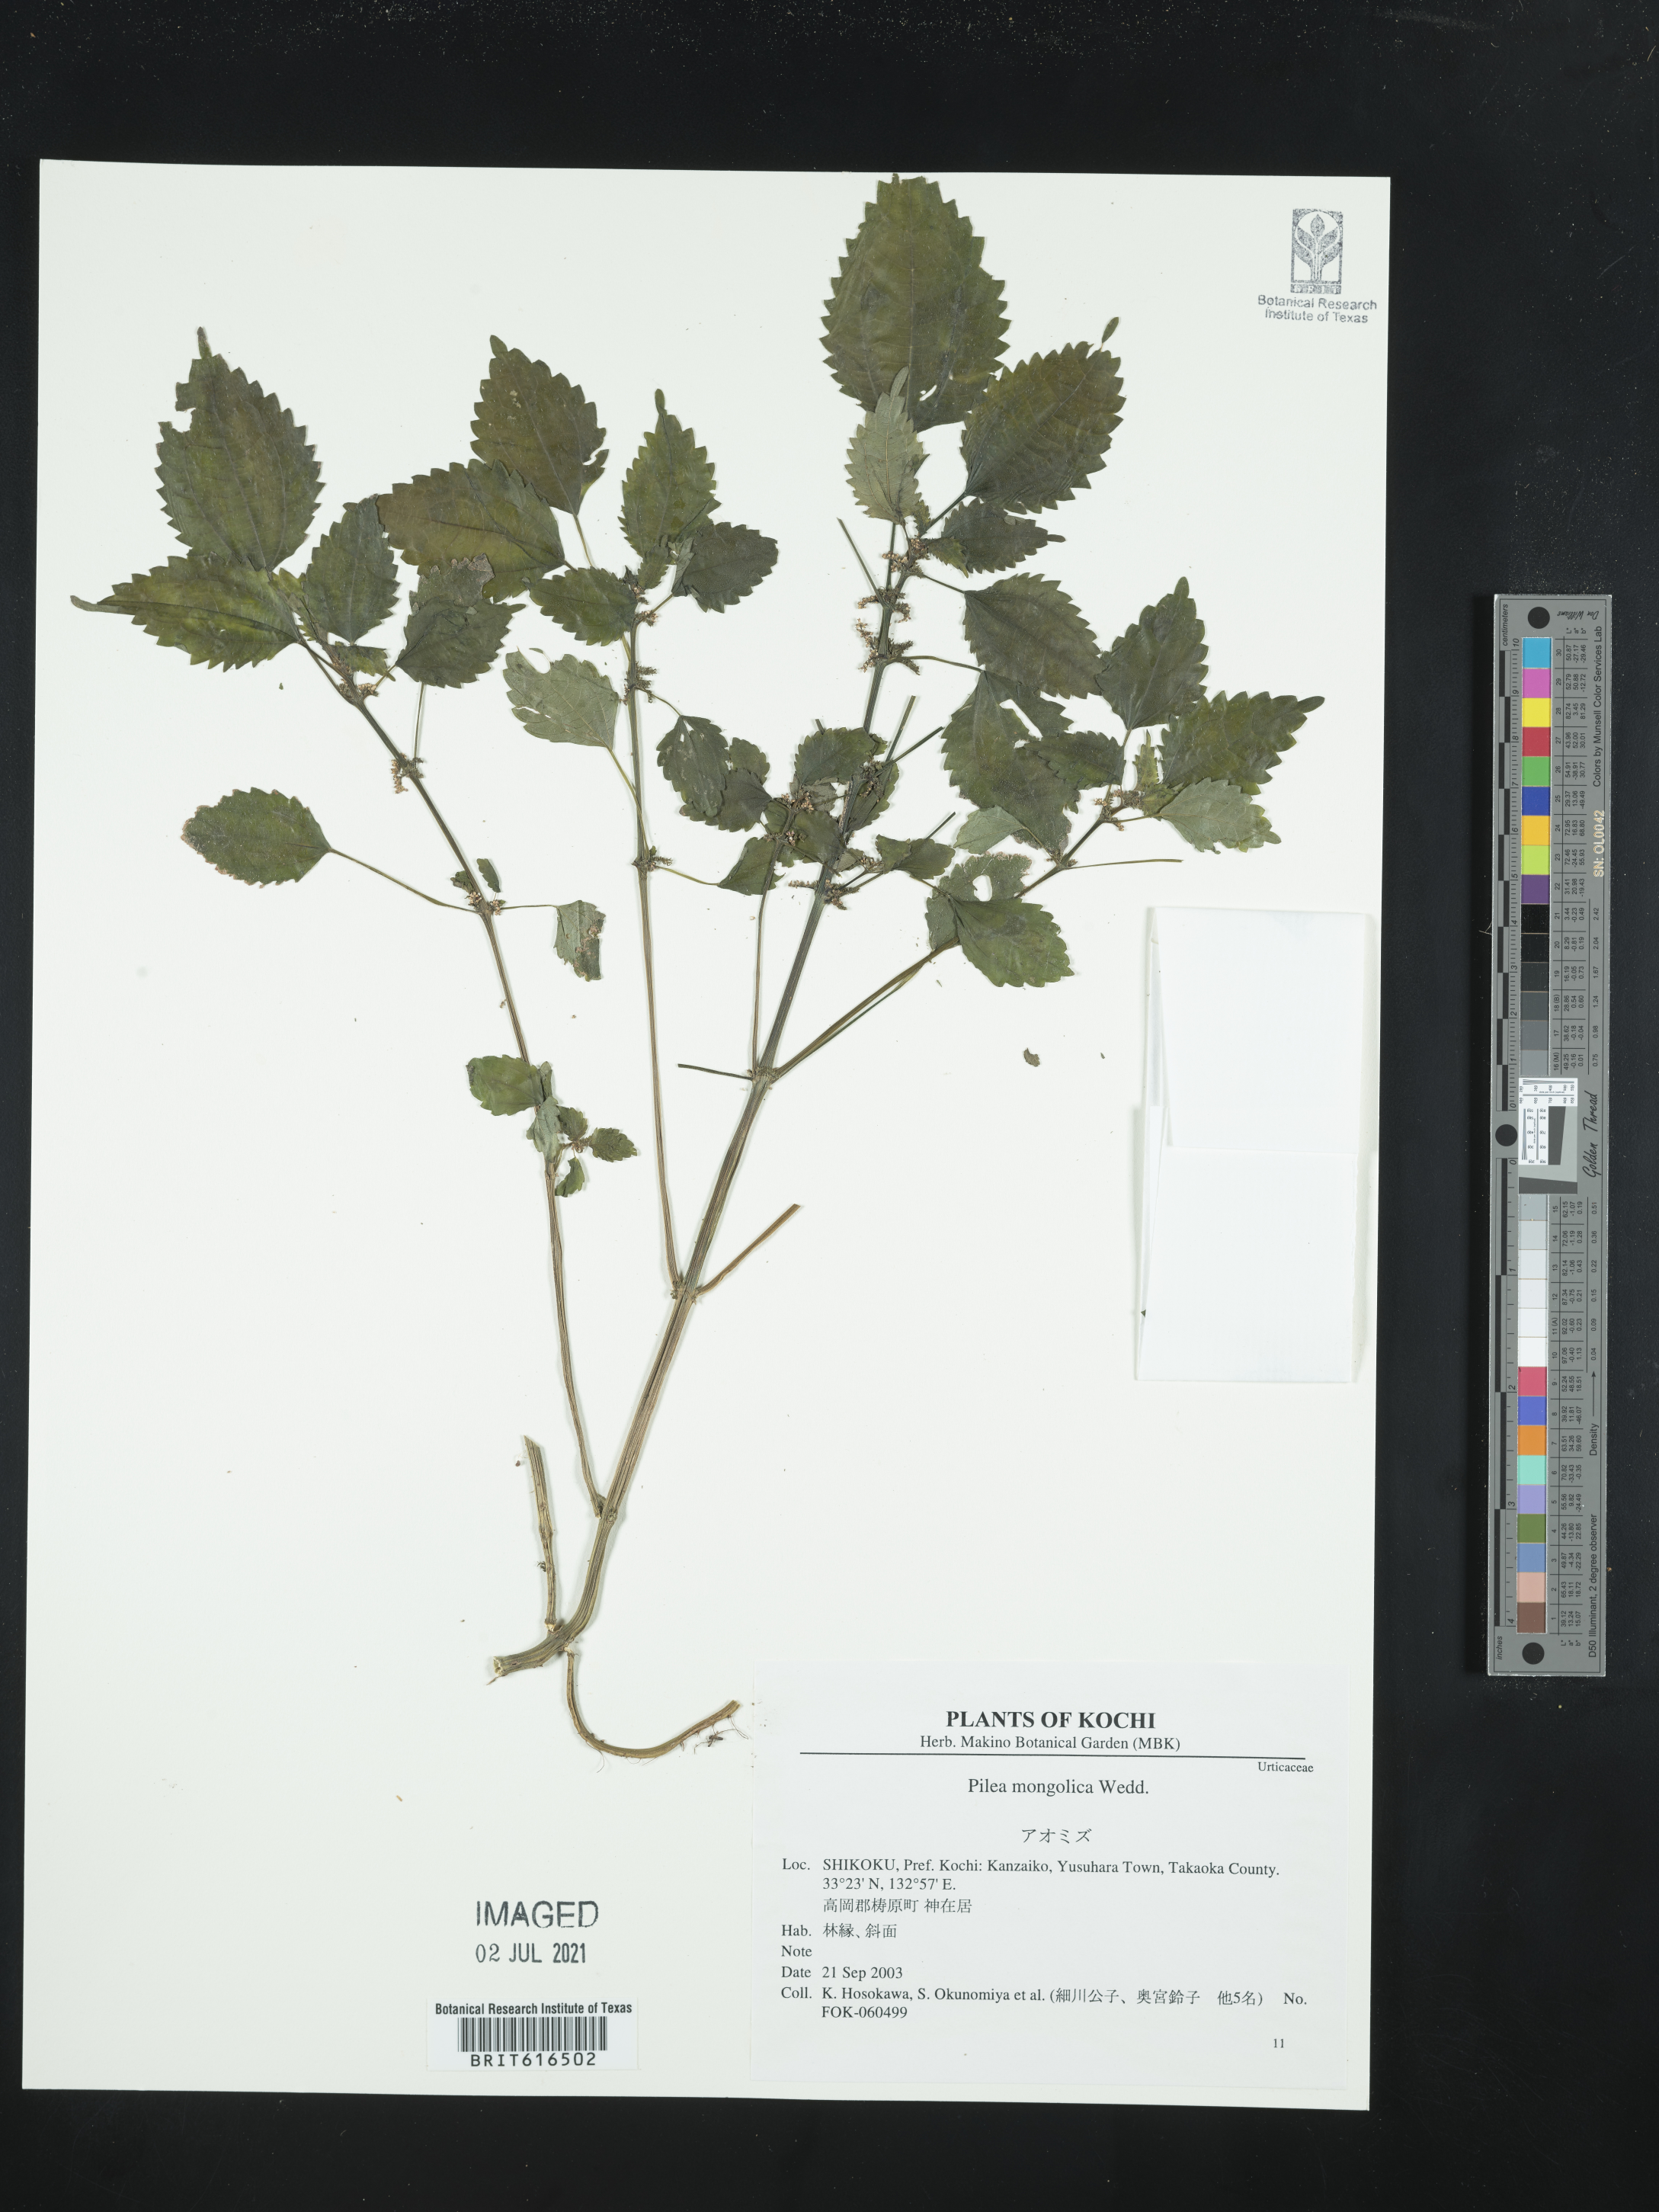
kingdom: Plantae
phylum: Tracheophyta
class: Magnoliopsida
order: Rosales
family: Urticaceae
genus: Pilea
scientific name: Pilea pumila
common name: Clearweed
